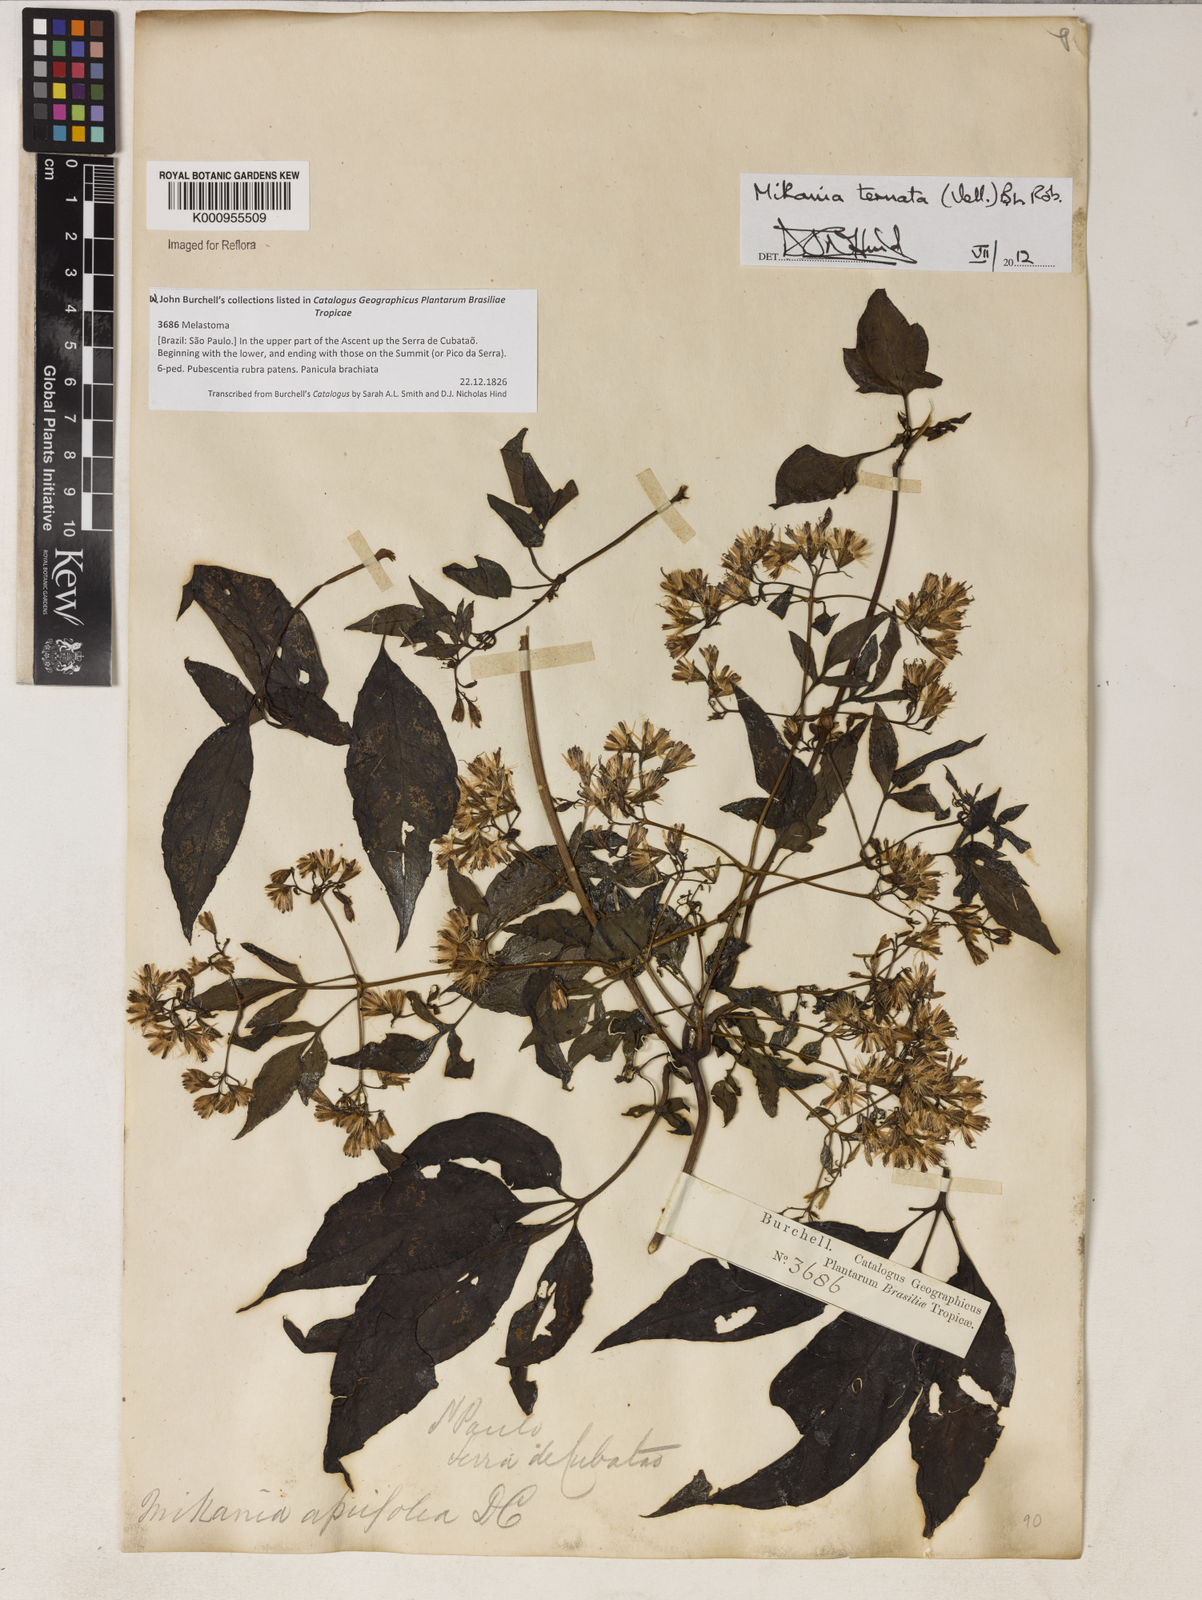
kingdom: Plantae
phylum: Tracheophyta
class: Magnoliopsida
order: Asterales
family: Asteraceae
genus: Mikania
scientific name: Mikania ternata
